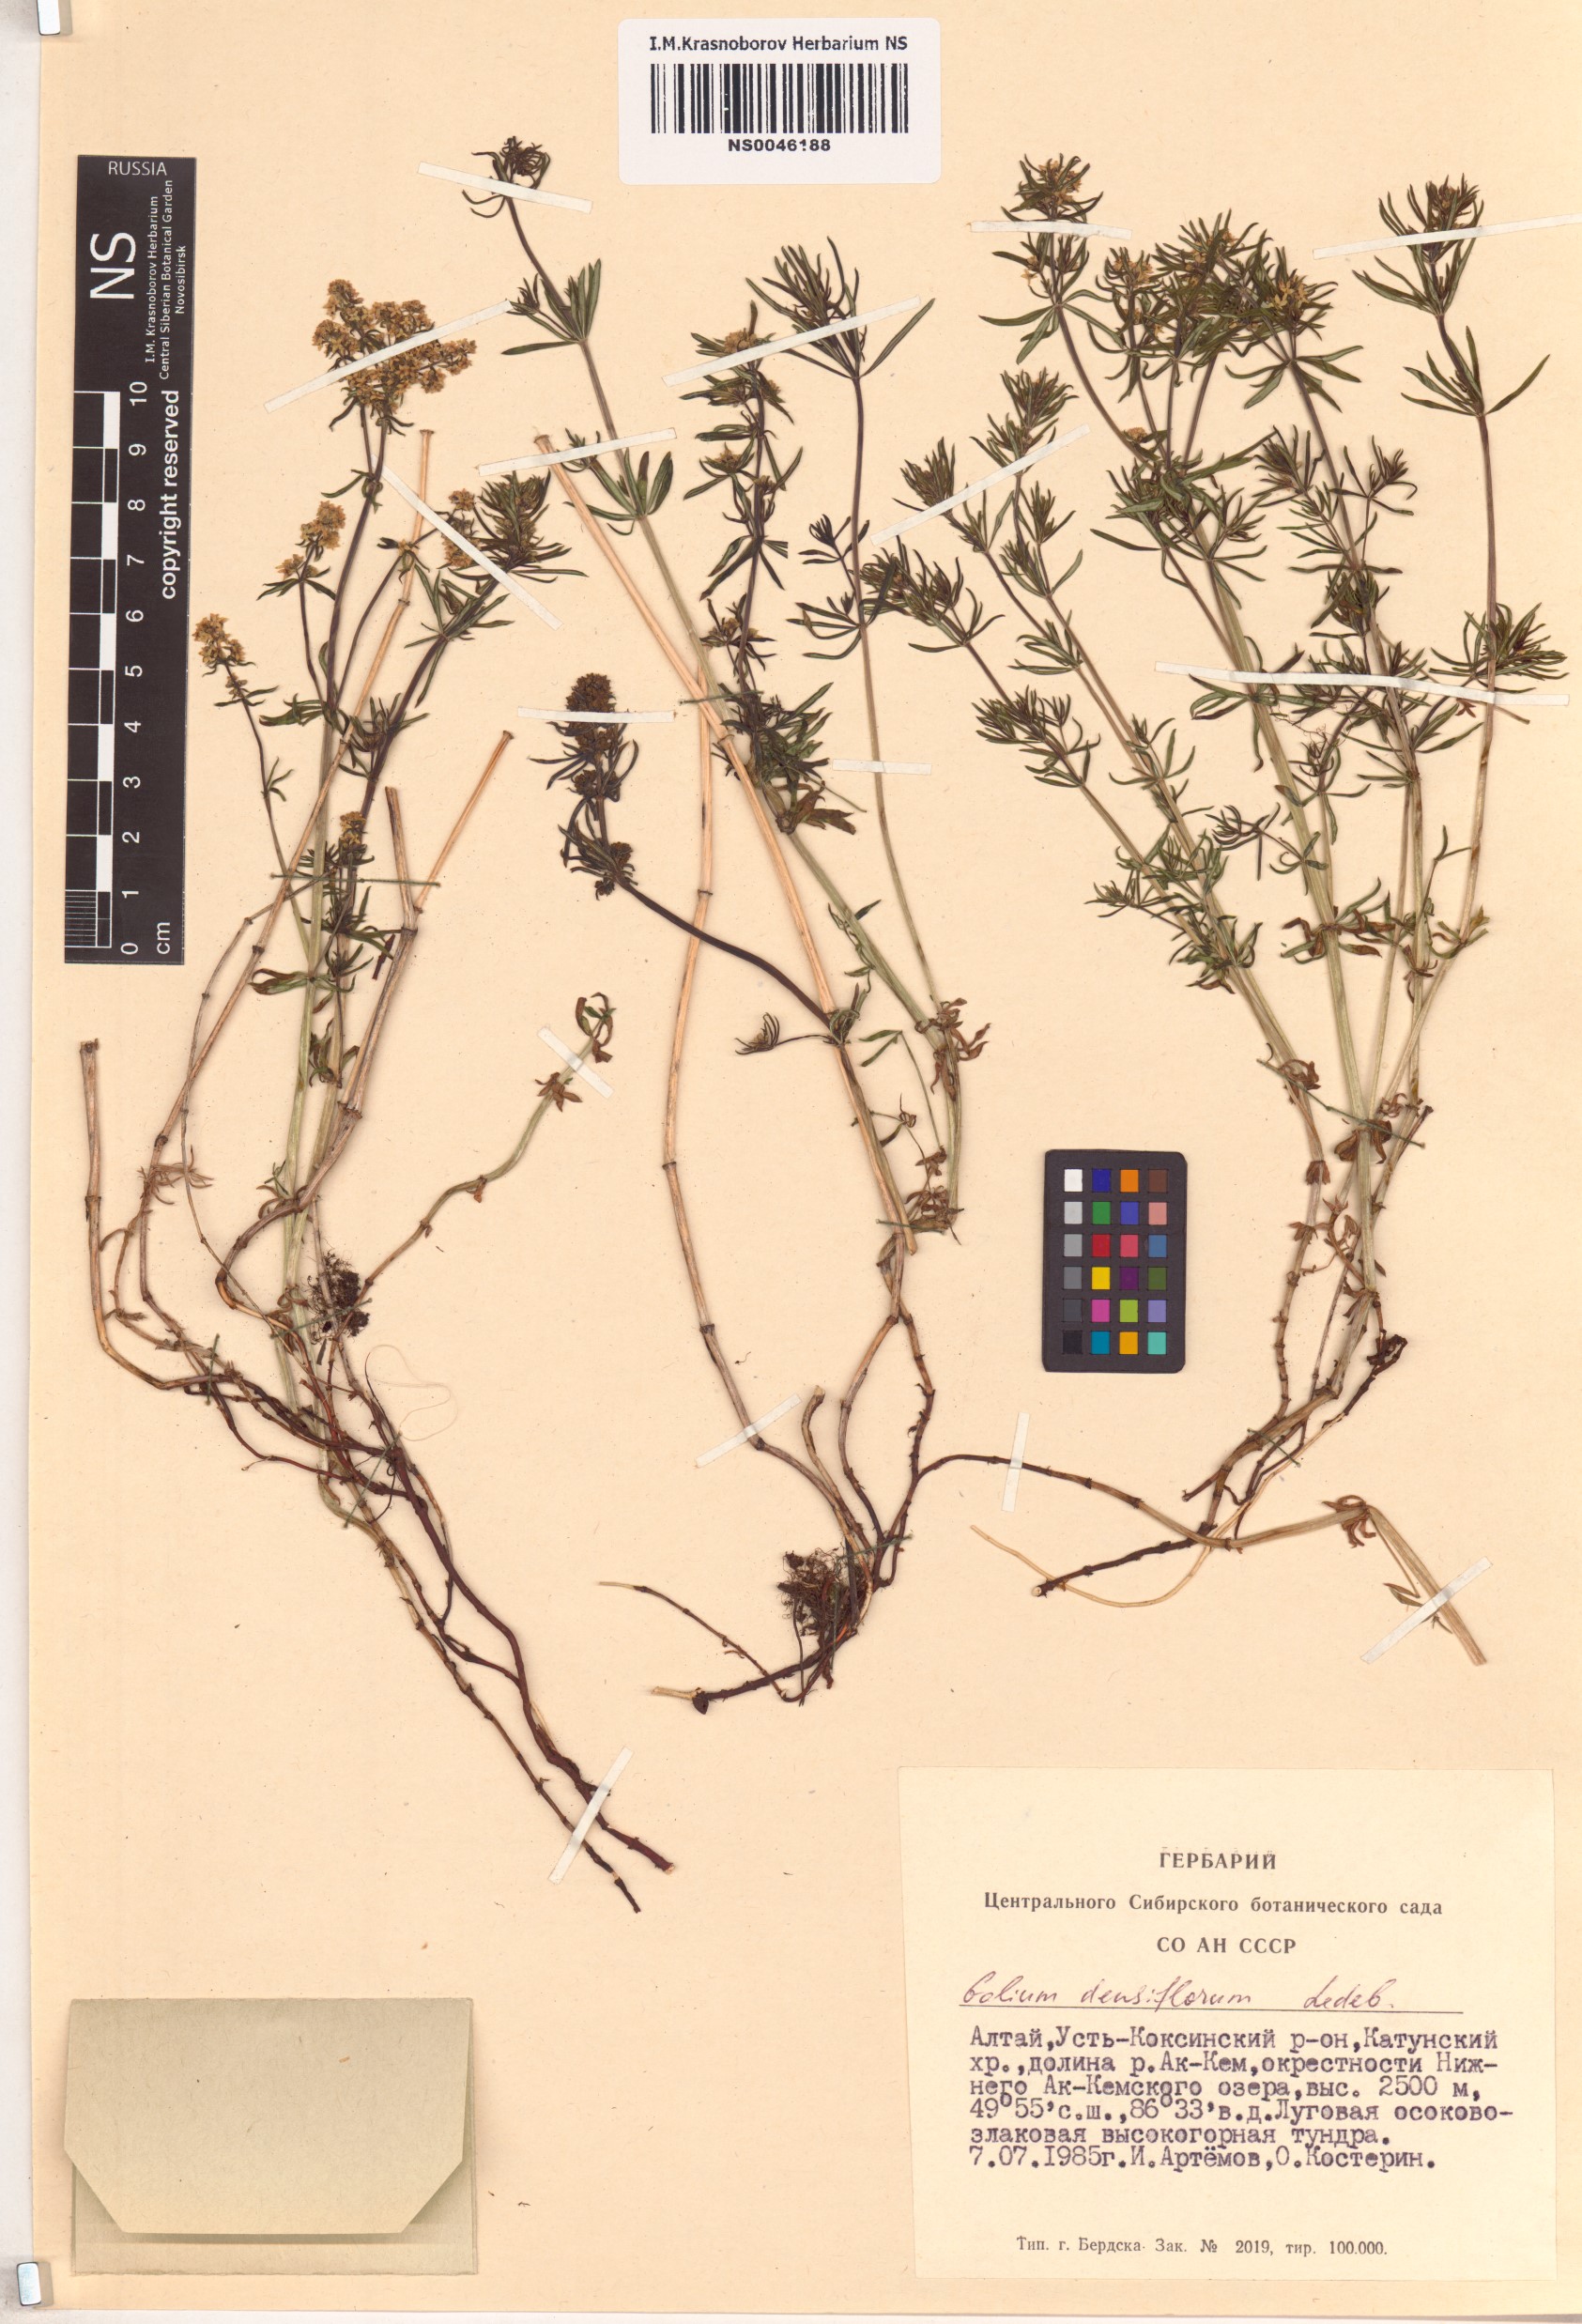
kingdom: Plantae
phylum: Tracheophyta
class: Magnoliopsida
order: Gentianales
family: Rubiaceae
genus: Galium
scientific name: Galium densiflorum
